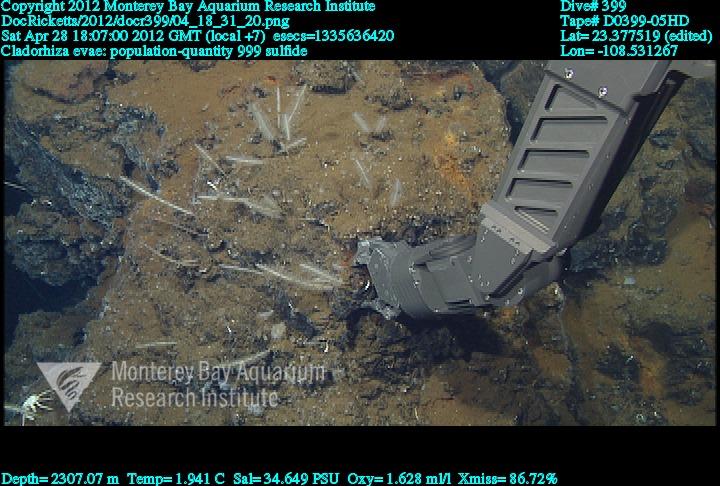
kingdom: Animalia
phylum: Porifera
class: Demospongiae
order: Poecilosclerida
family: Cladorhizidae
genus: Nullarbora
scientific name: Nullarbora evae
